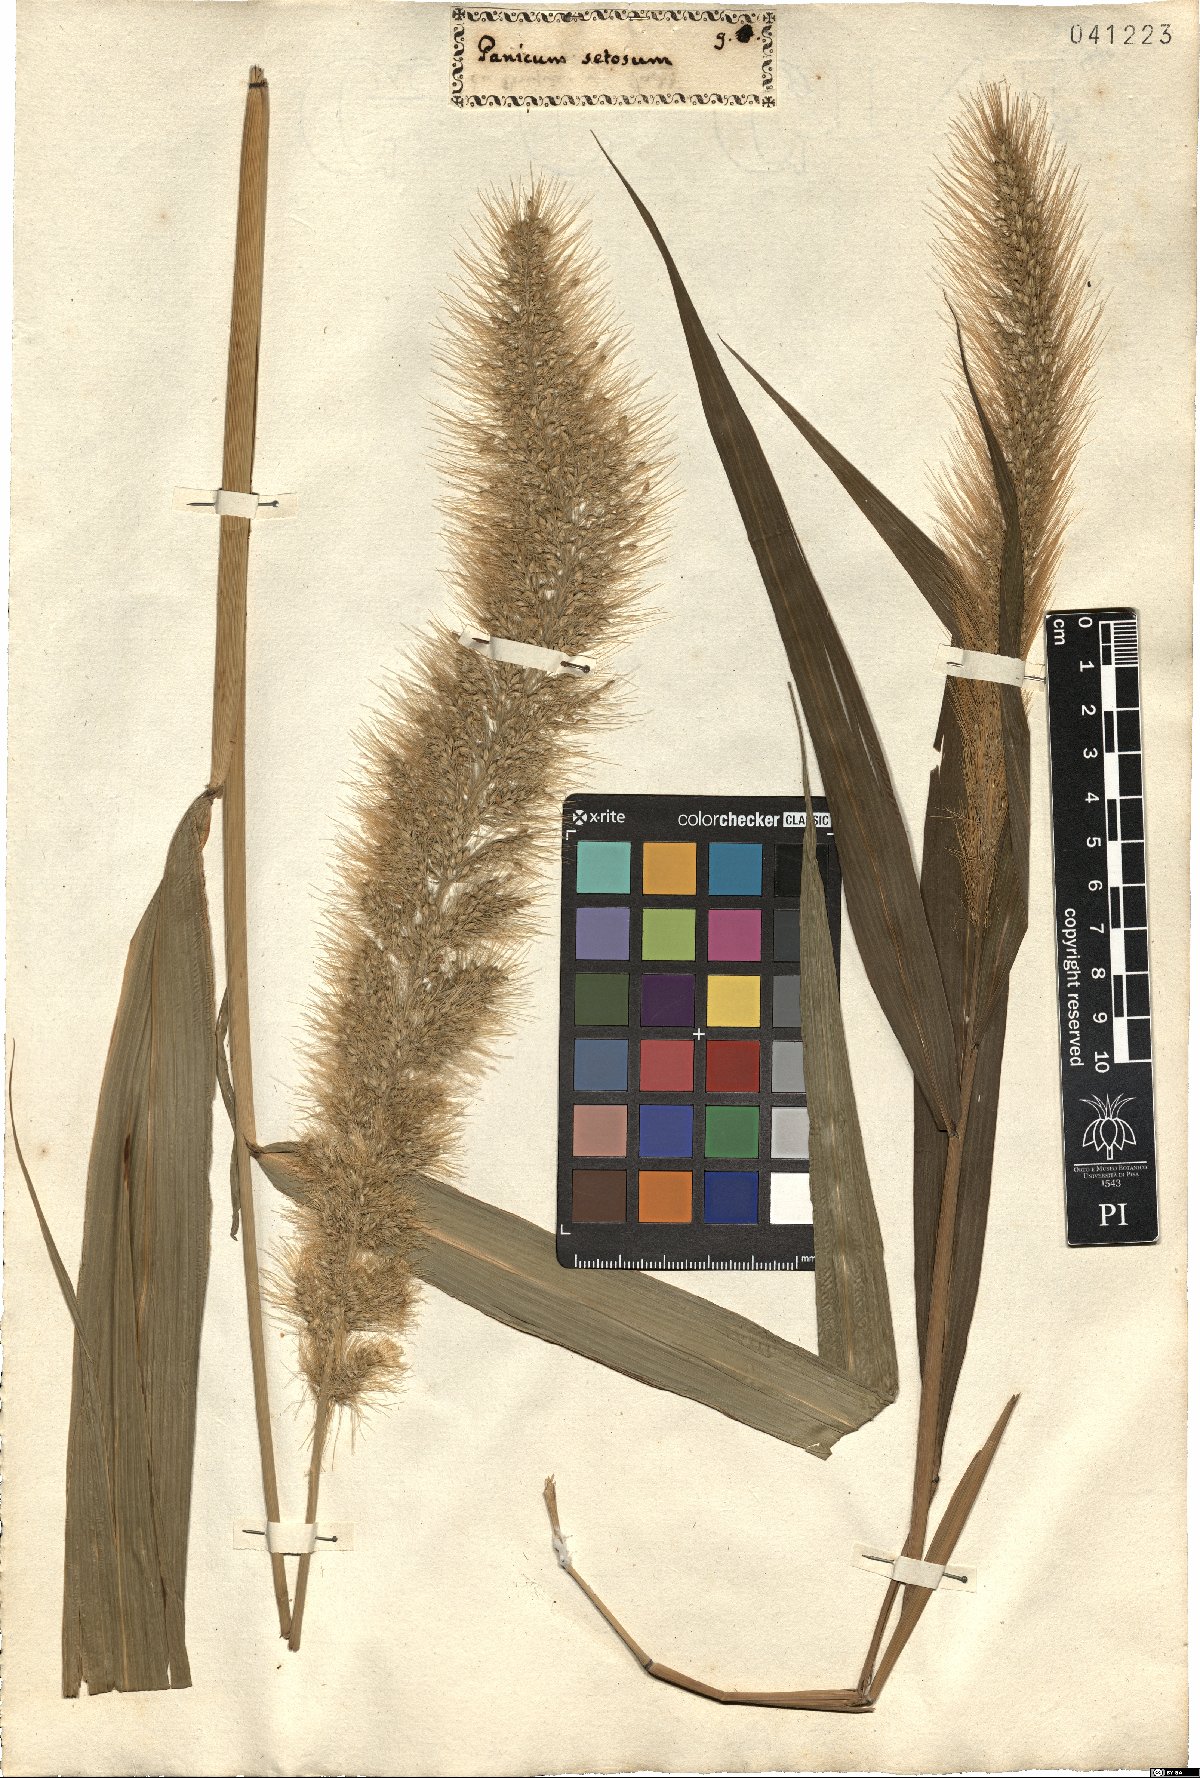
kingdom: Plantae
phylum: Tracheophyta
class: Liliopsida
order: Poales
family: Poaceae
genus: Setaria
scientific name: Setaria macrostachya
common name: Plains bristle grass
